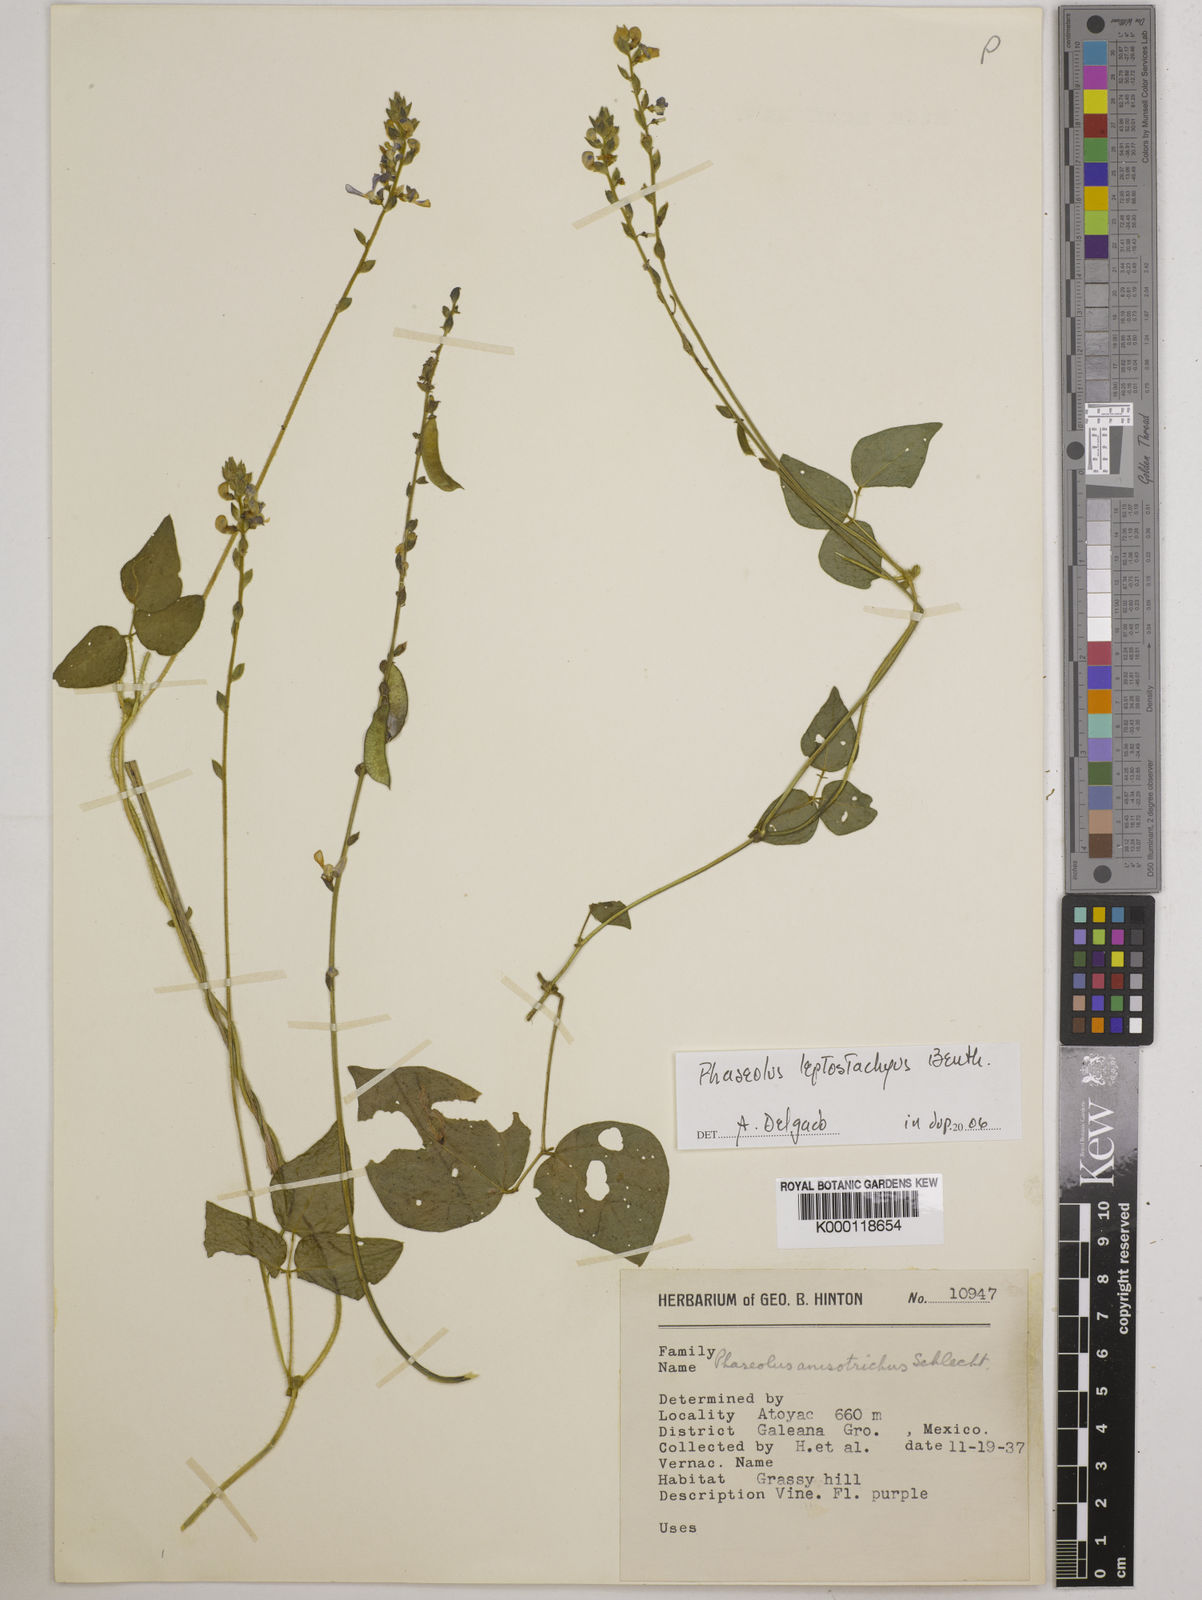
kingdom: Plantae
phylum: Tracheophyta
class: Magnoliopsida
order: Fabales
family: Fabaceae
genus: Phaseolus
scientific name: Phaseolus
